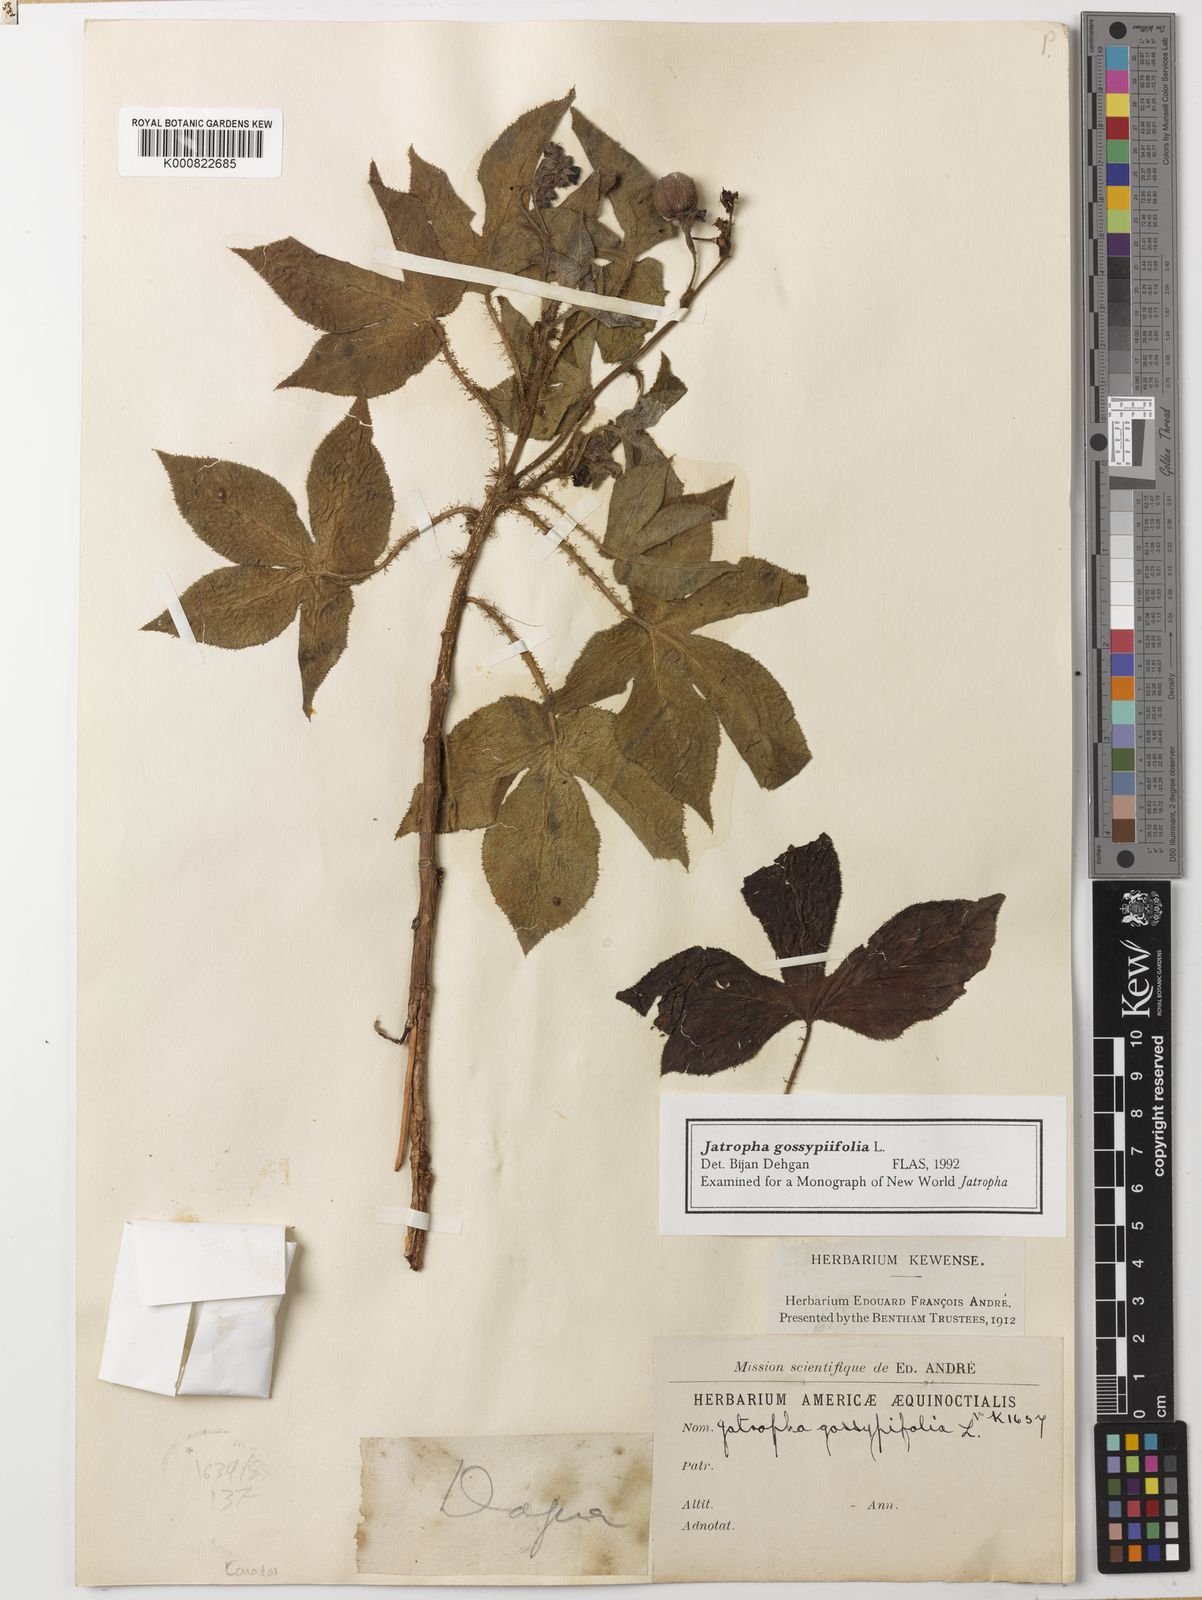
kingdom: Plantae
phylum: Tracheophyta
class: Magnoliopsida
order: Malpighiales
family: Euphorbiaceae
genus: Jatropha
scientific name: Jatropha gossypiifolia
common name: Bellyache bush
